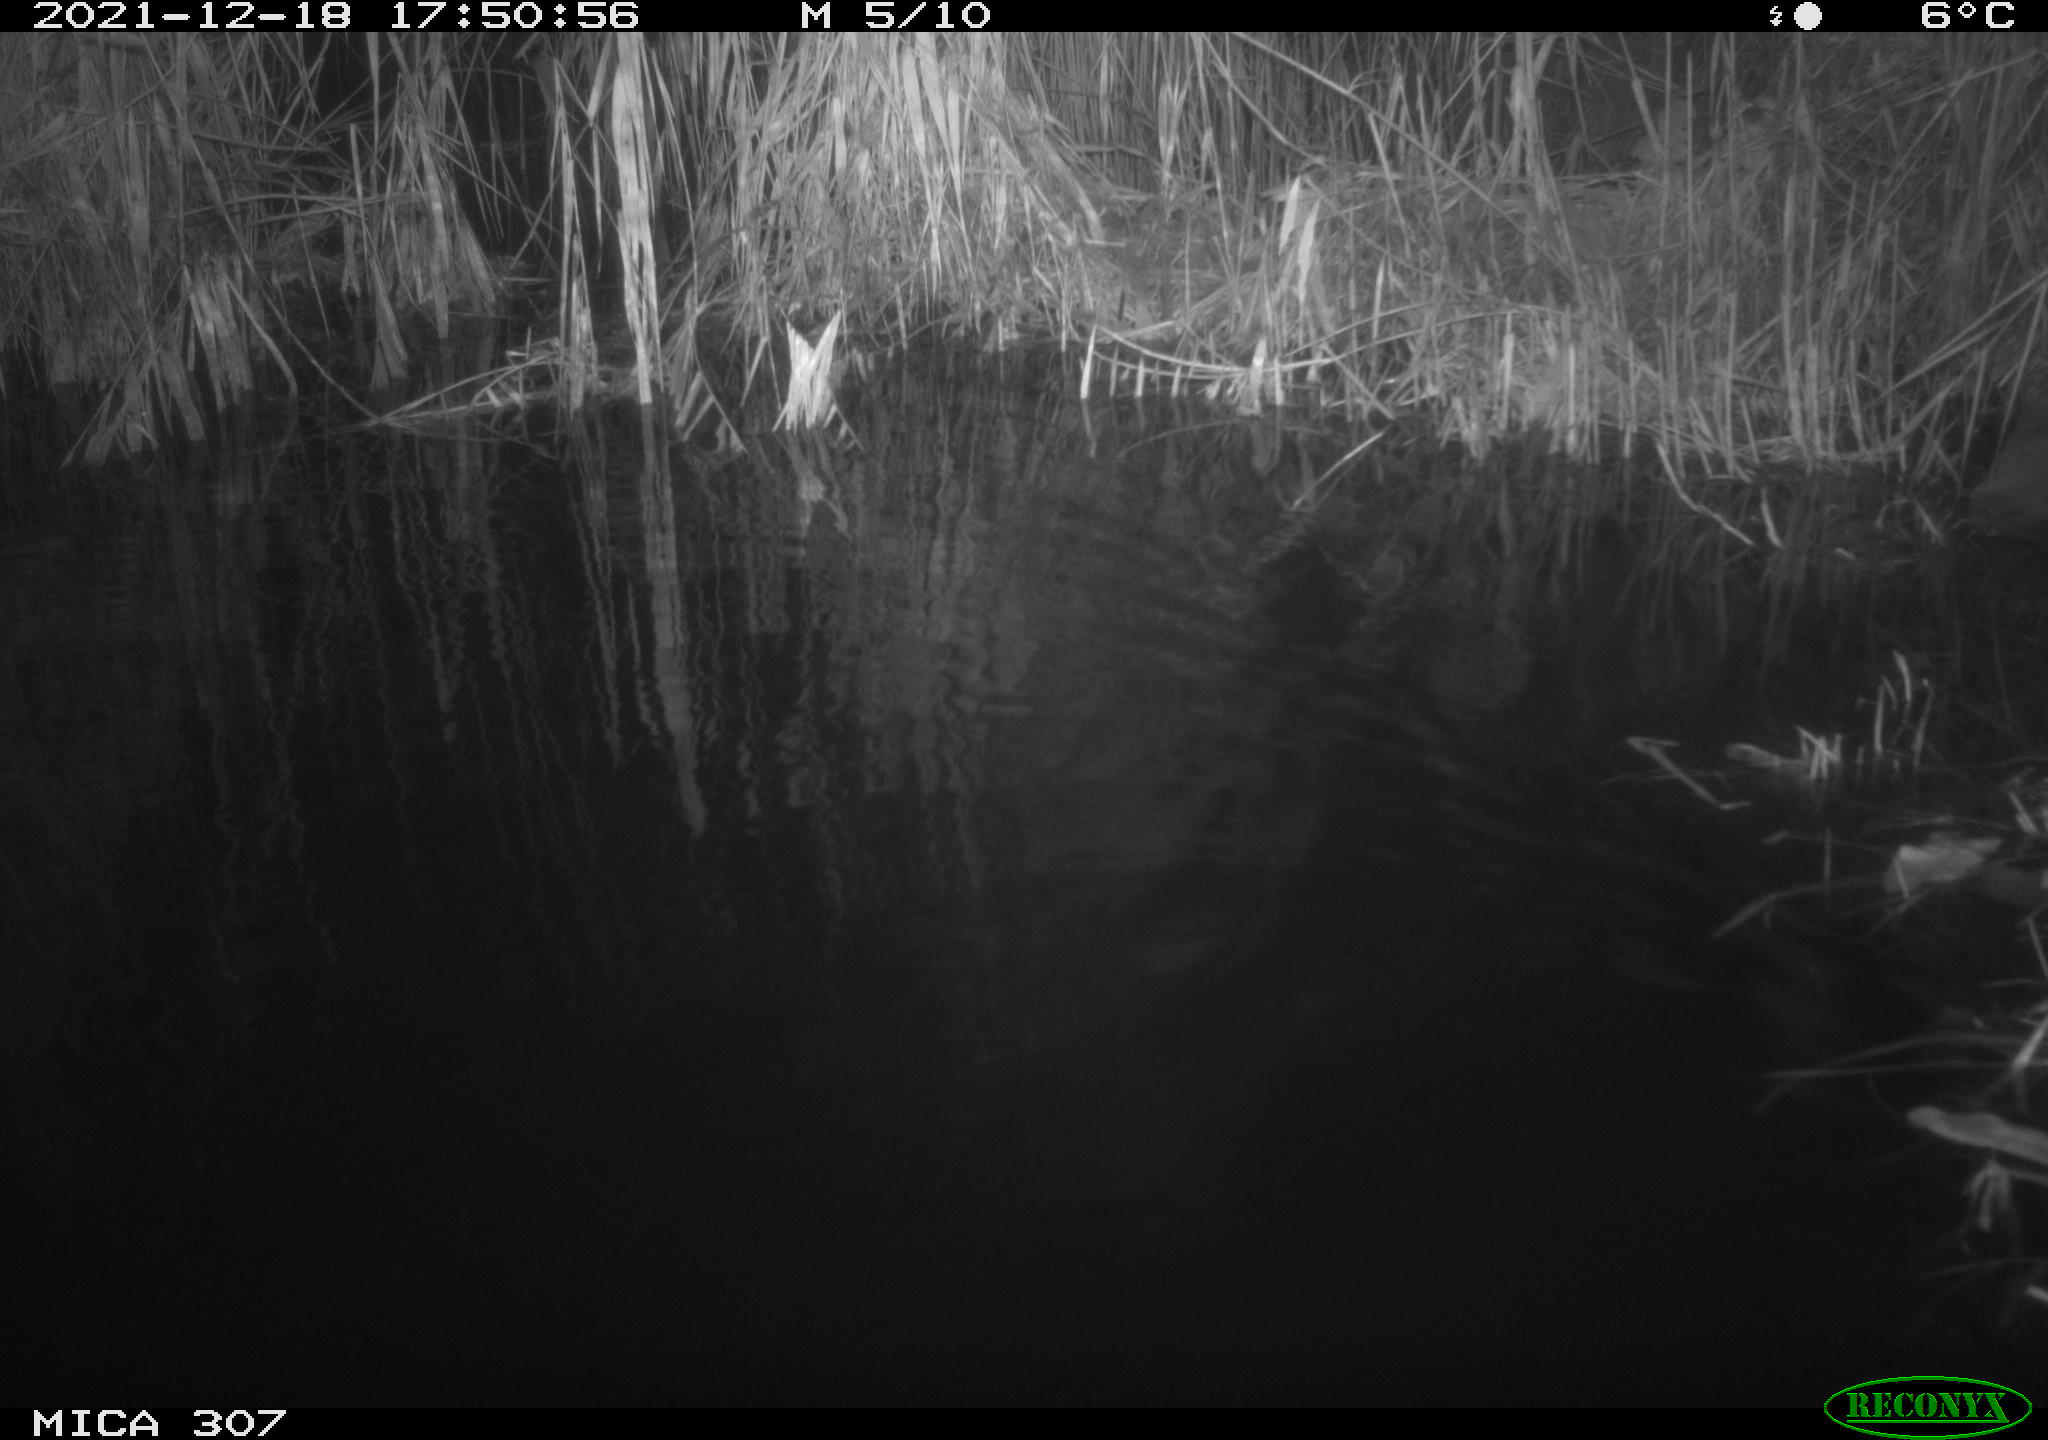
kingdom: Animalia
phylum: Chordata
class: Mammalia
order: Rodentia
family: Muridae
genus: Rattus
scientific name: Rattus norvegicus
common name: Brown rat
